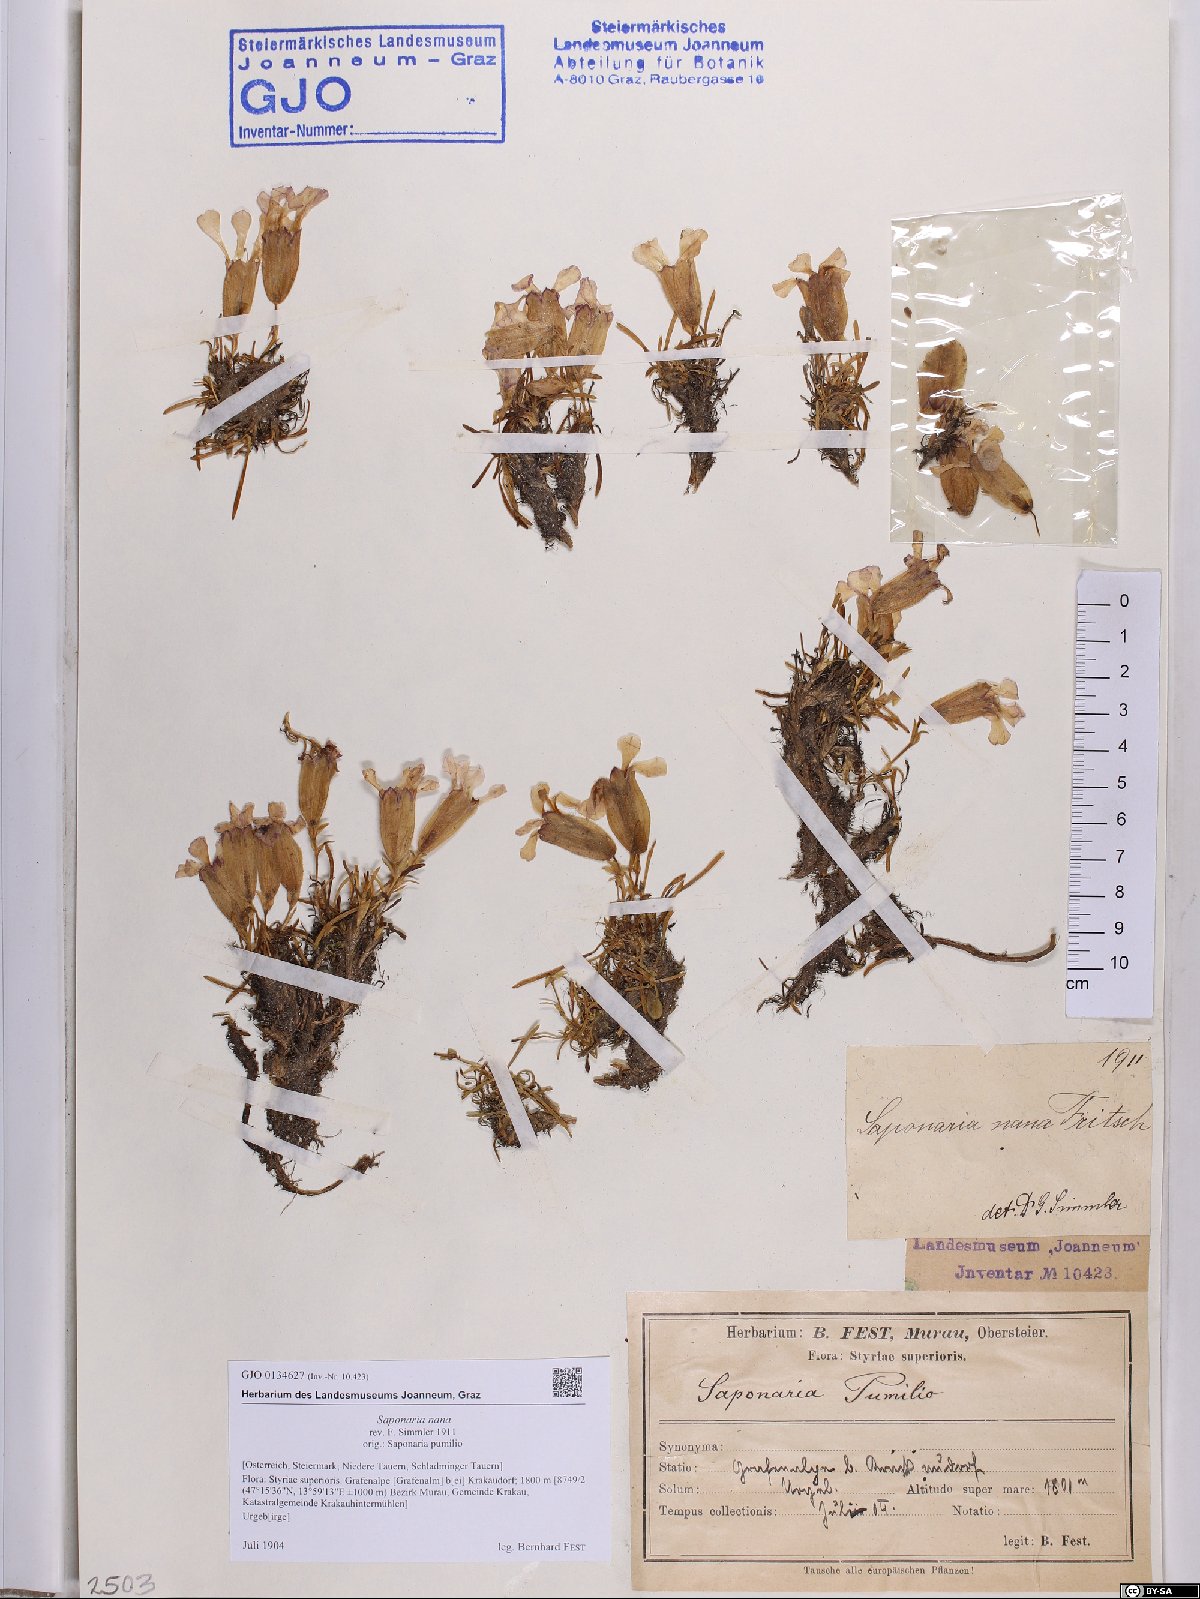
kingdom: Plantae
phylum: Tracheophyta
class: Magnoliopsida
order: Caryophyllales
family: Caryophyllaceae
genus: Saponaria
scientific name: Saponaria pumila
